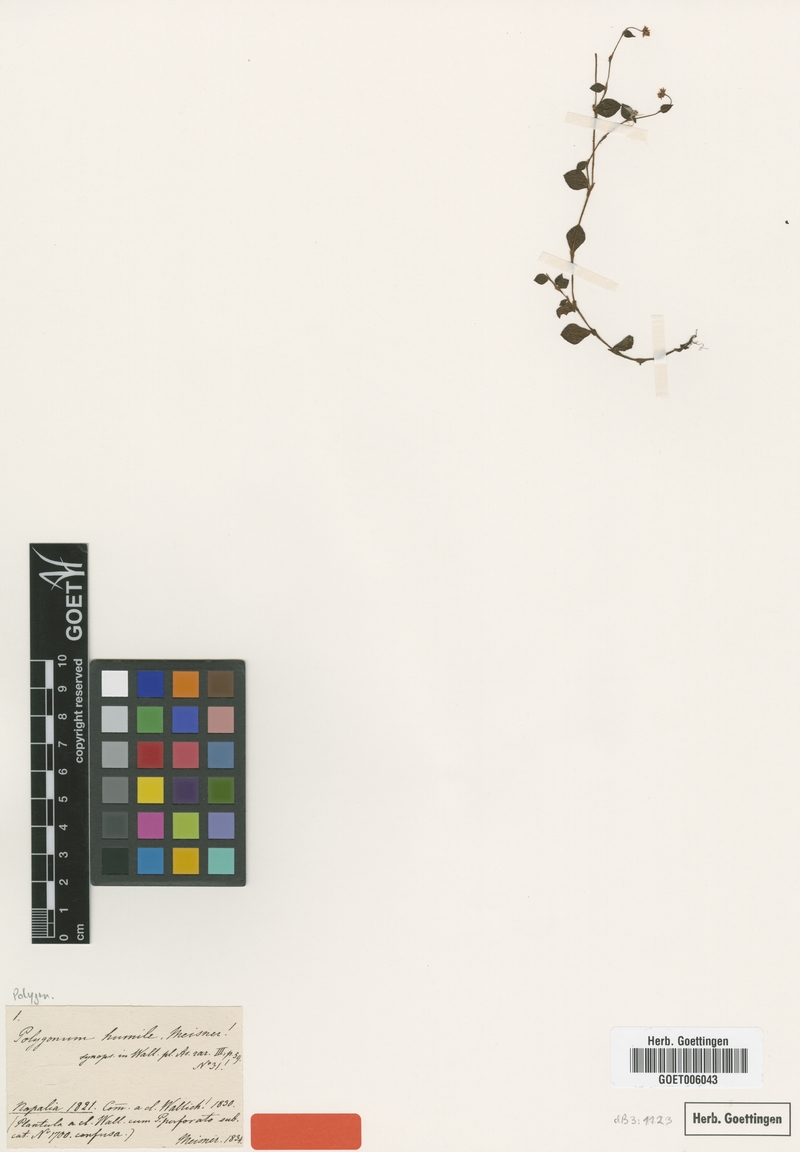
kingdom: Plantae
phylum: Tracheophyta
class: Magnoliopsida
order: Caryophyllales
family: Polygonaceae
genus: Persicaria
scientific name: Persicaria humilis
